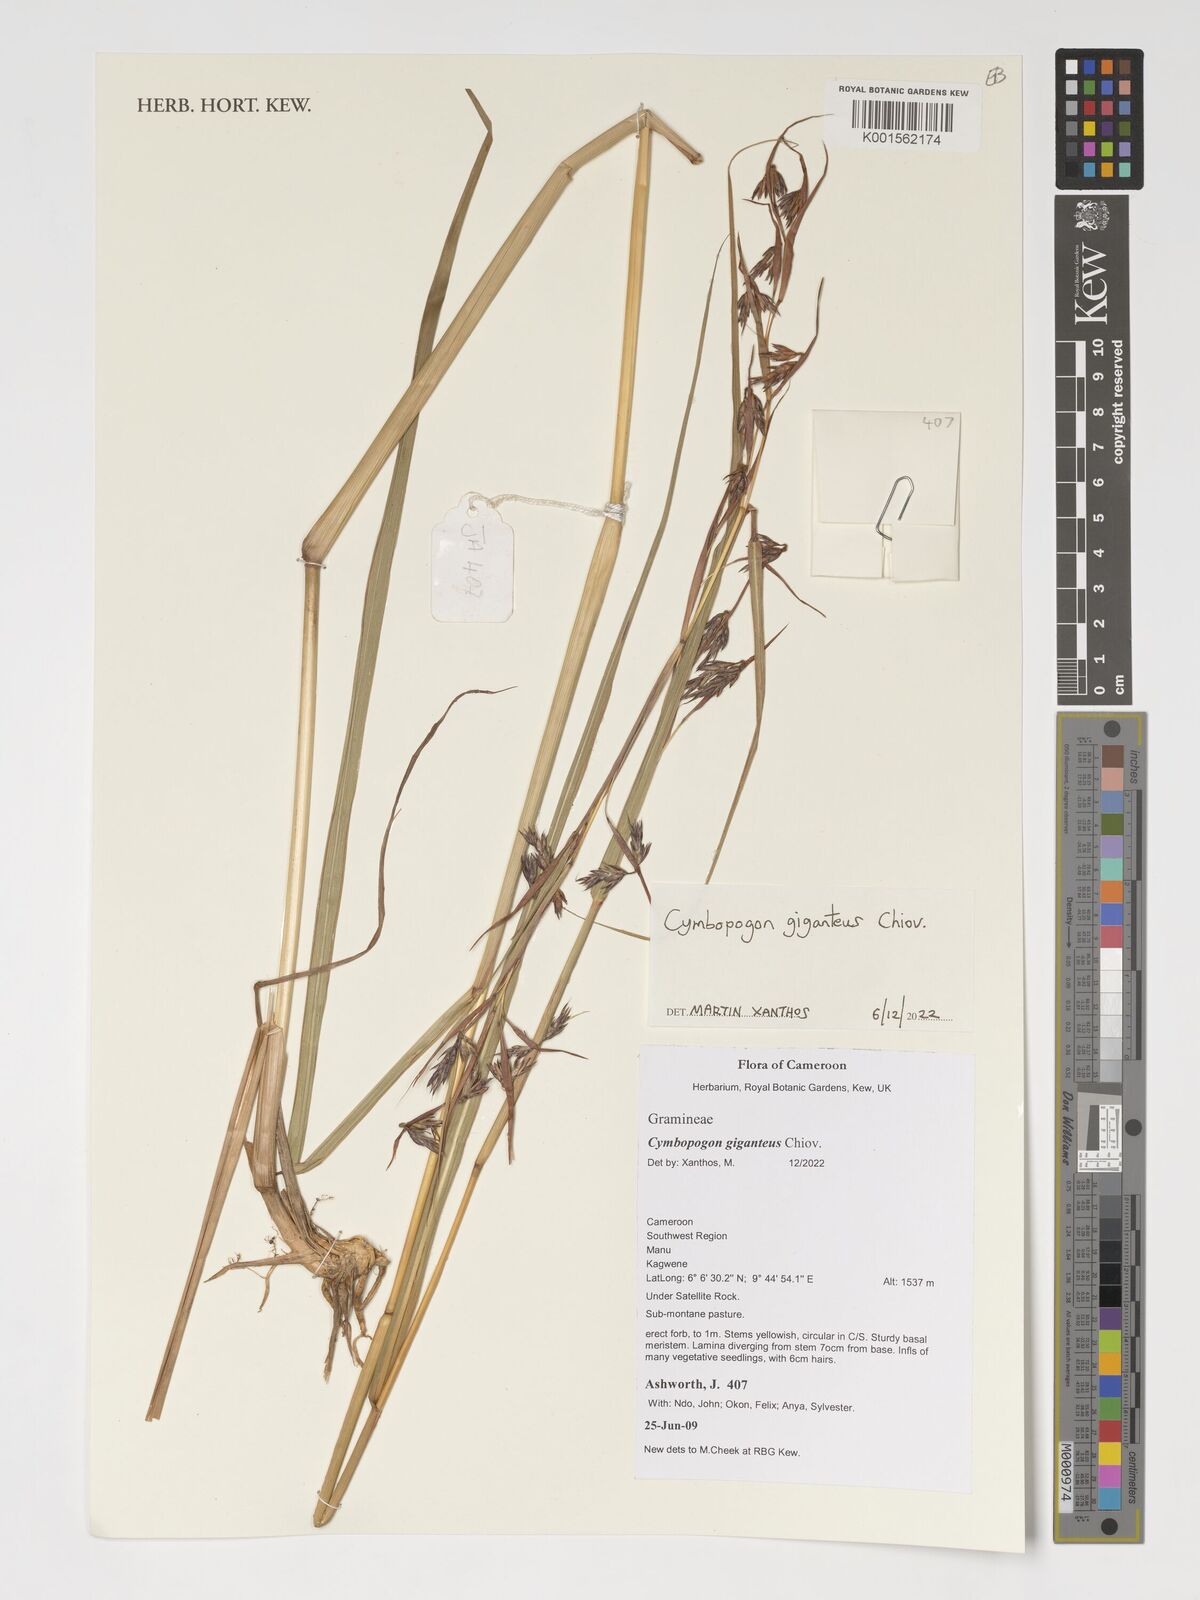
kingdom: Plantae
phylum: Tracheophyta
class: Liliopsida
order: Poales
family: Poaceae
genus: Cymbopogon
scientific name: Cymbopogon giganteus
